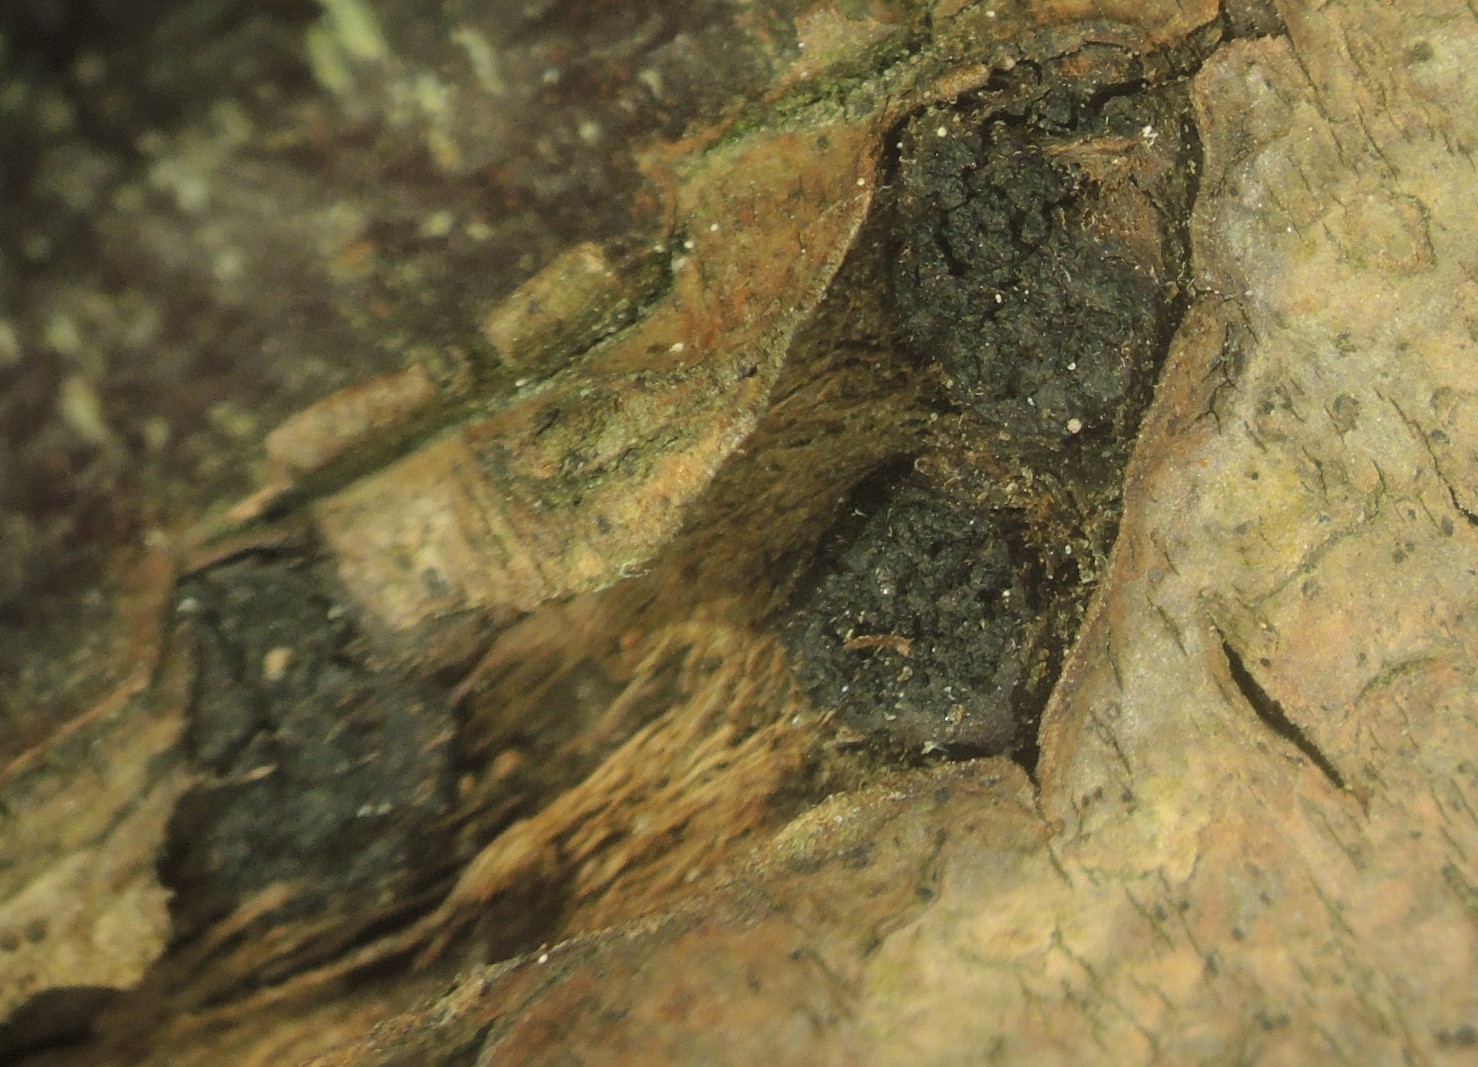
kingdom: Fungi
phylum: Ascomycota
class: Sordariomycetes
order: Xylariales
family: Diatrypaceae
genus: Eutypella
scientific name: Eutypella prunastri
